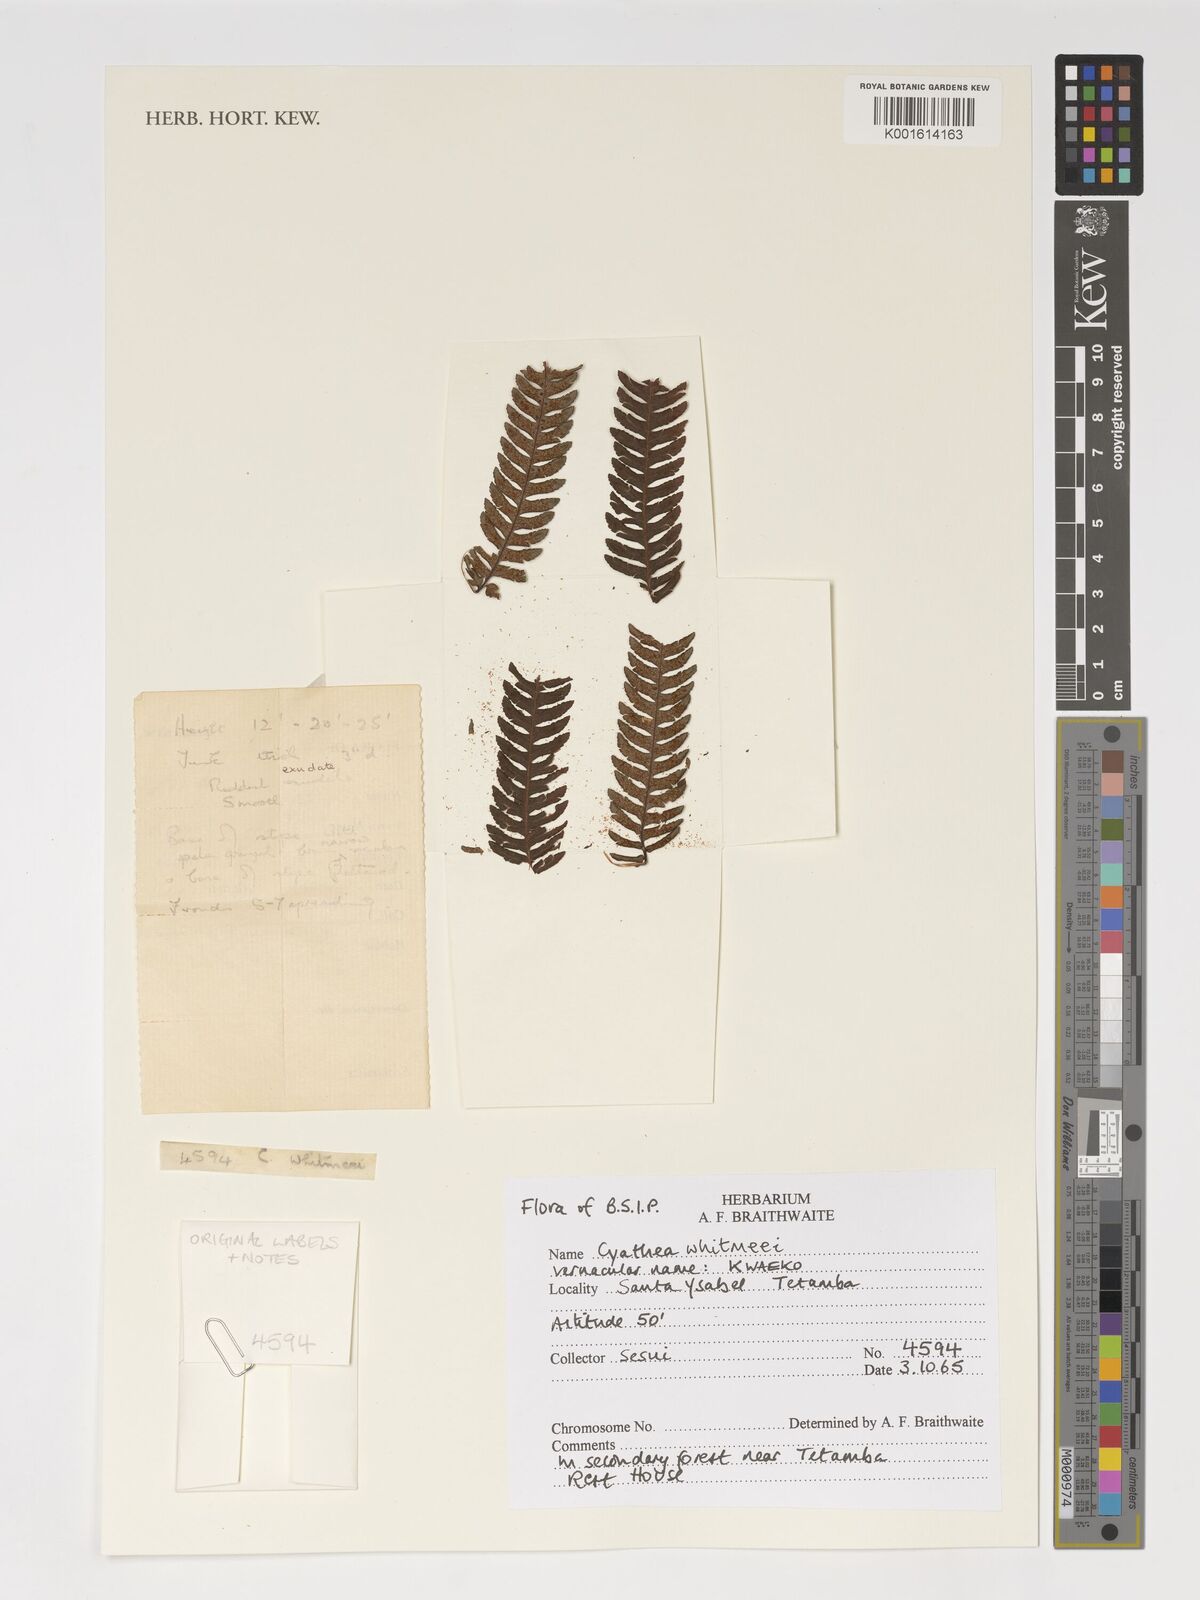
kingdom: Plantae
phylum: Tracheophyta
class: Polypodiopsida
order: Cyatheales
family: Cyatheaceae
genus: Cyathea
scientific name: Cyathea whitmeei
